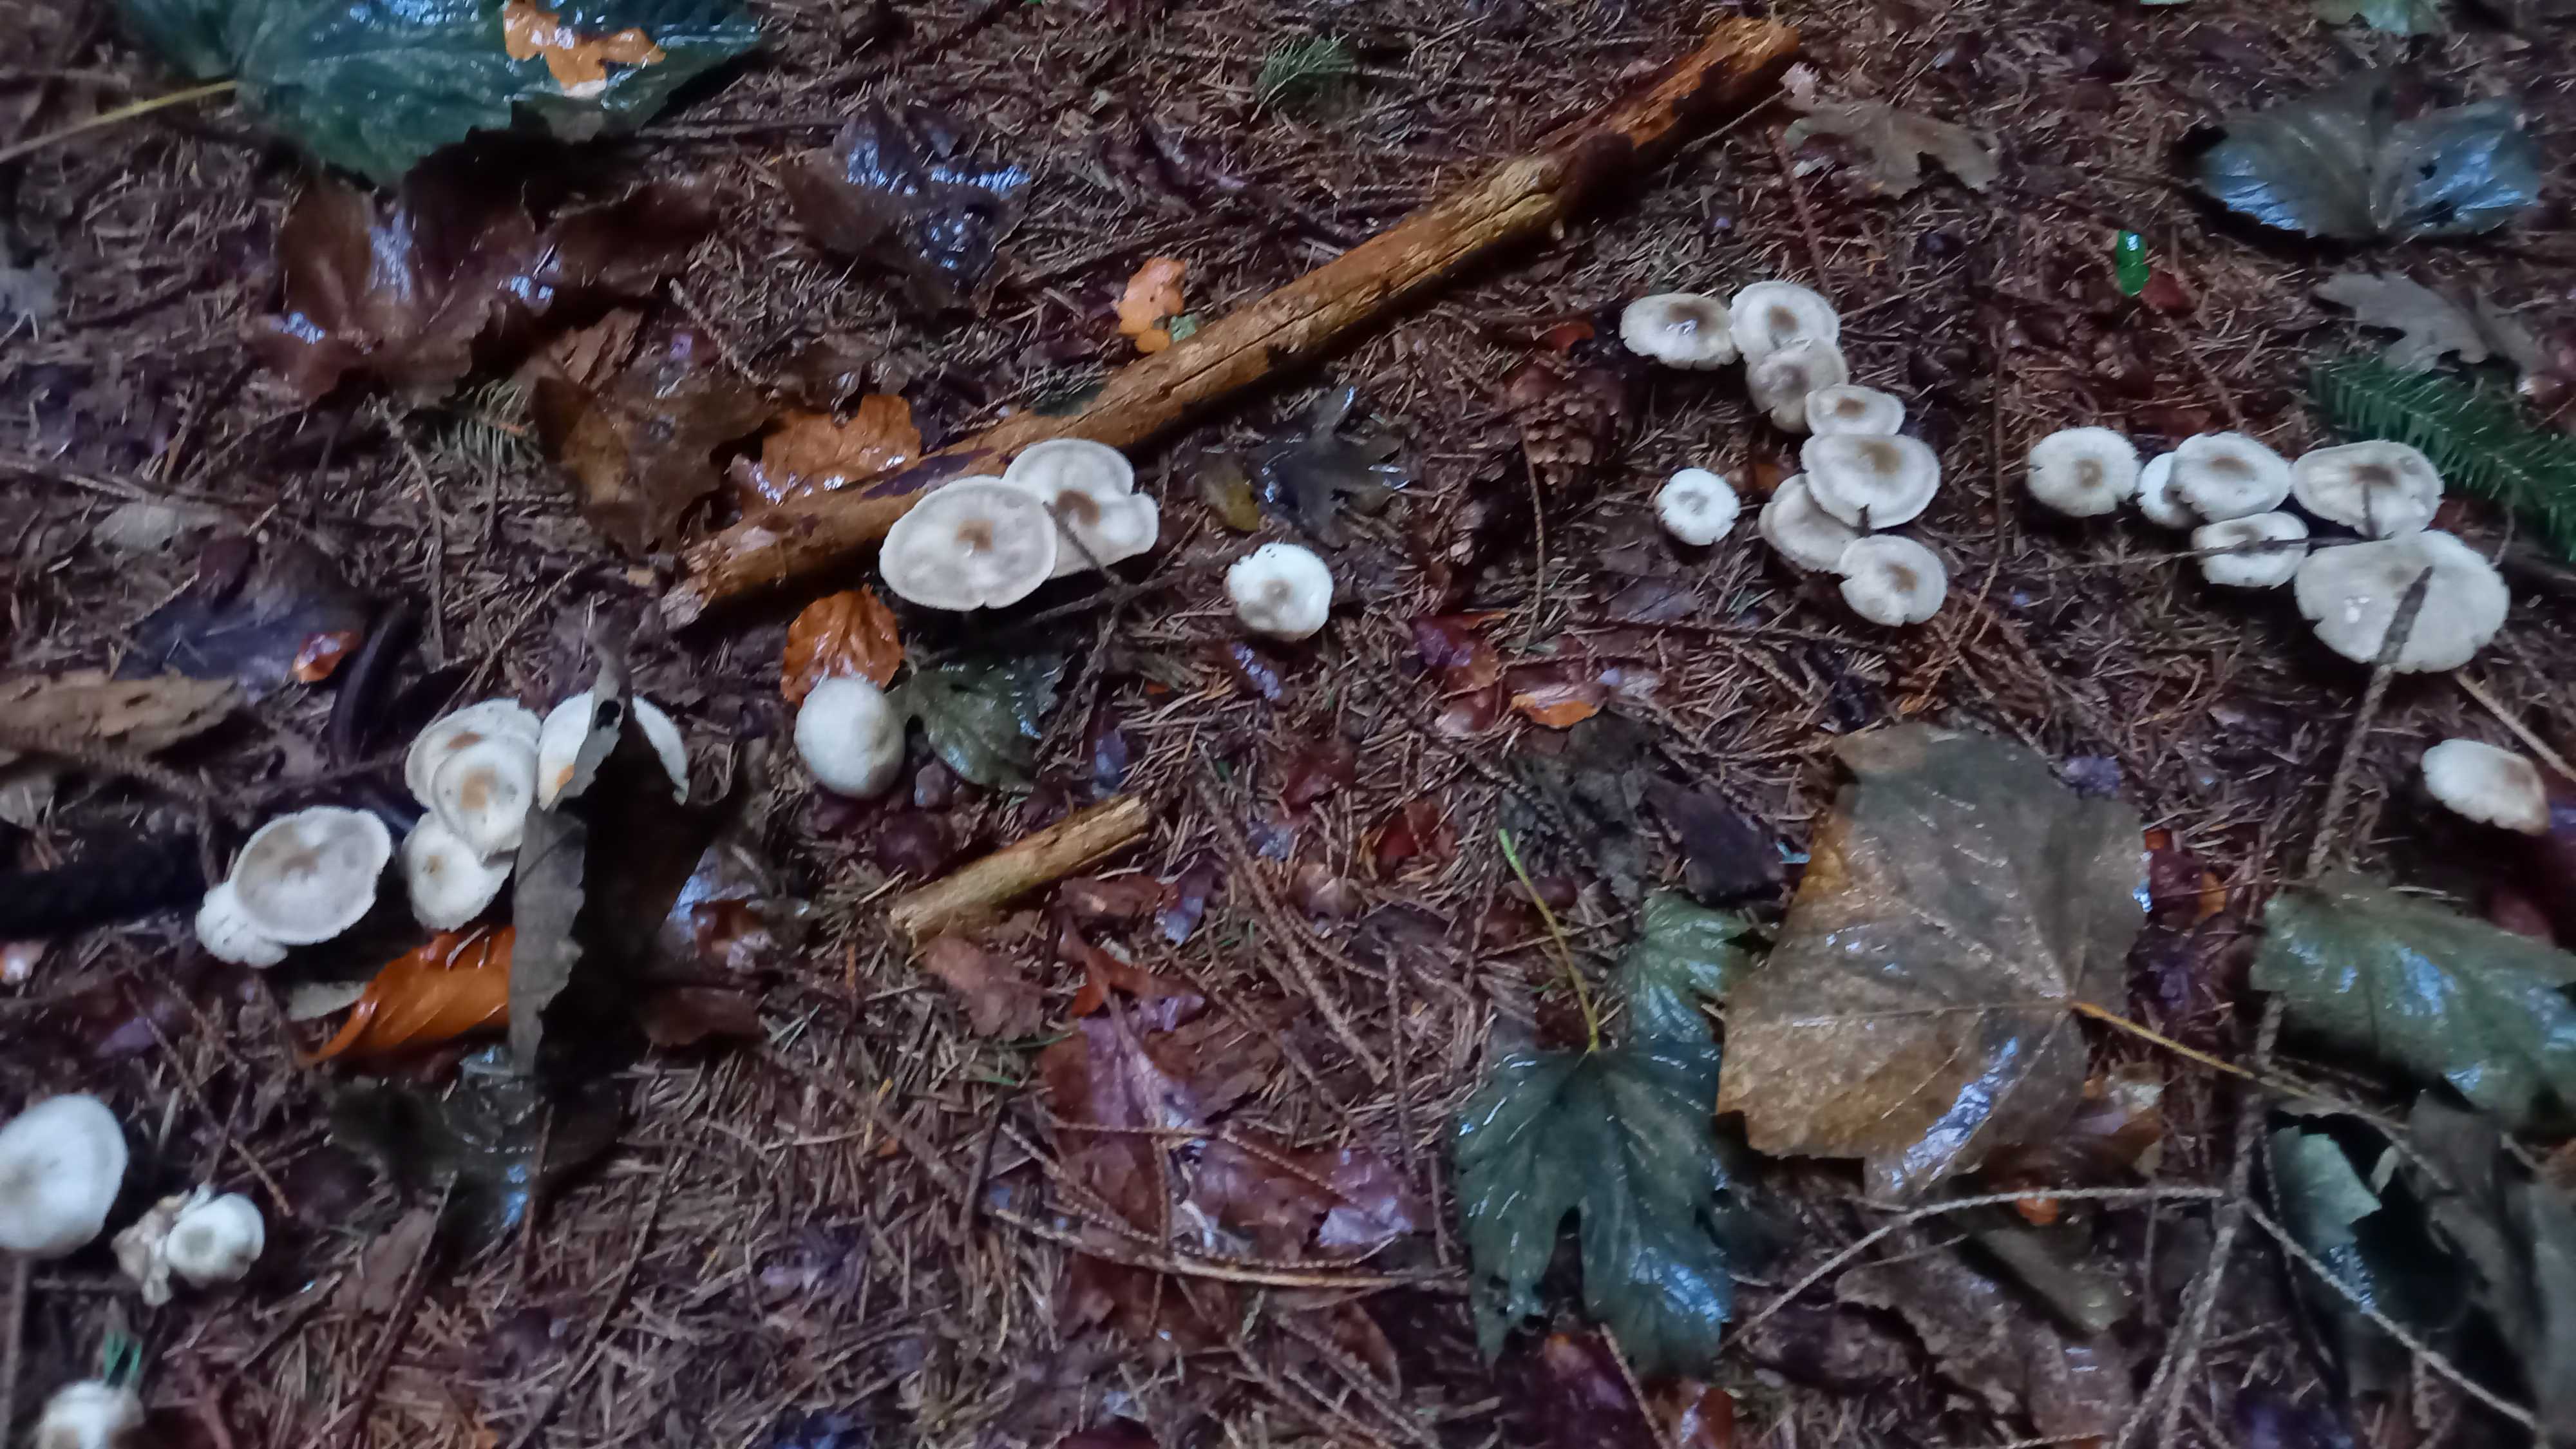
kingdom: Fungi
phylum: Basidiomycota
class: Agaricomycetes
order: Agaricales
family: Omphalotaceae
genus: Rhodocollybia
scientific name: Rhodocollybia asema
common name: horngrå fladhat
